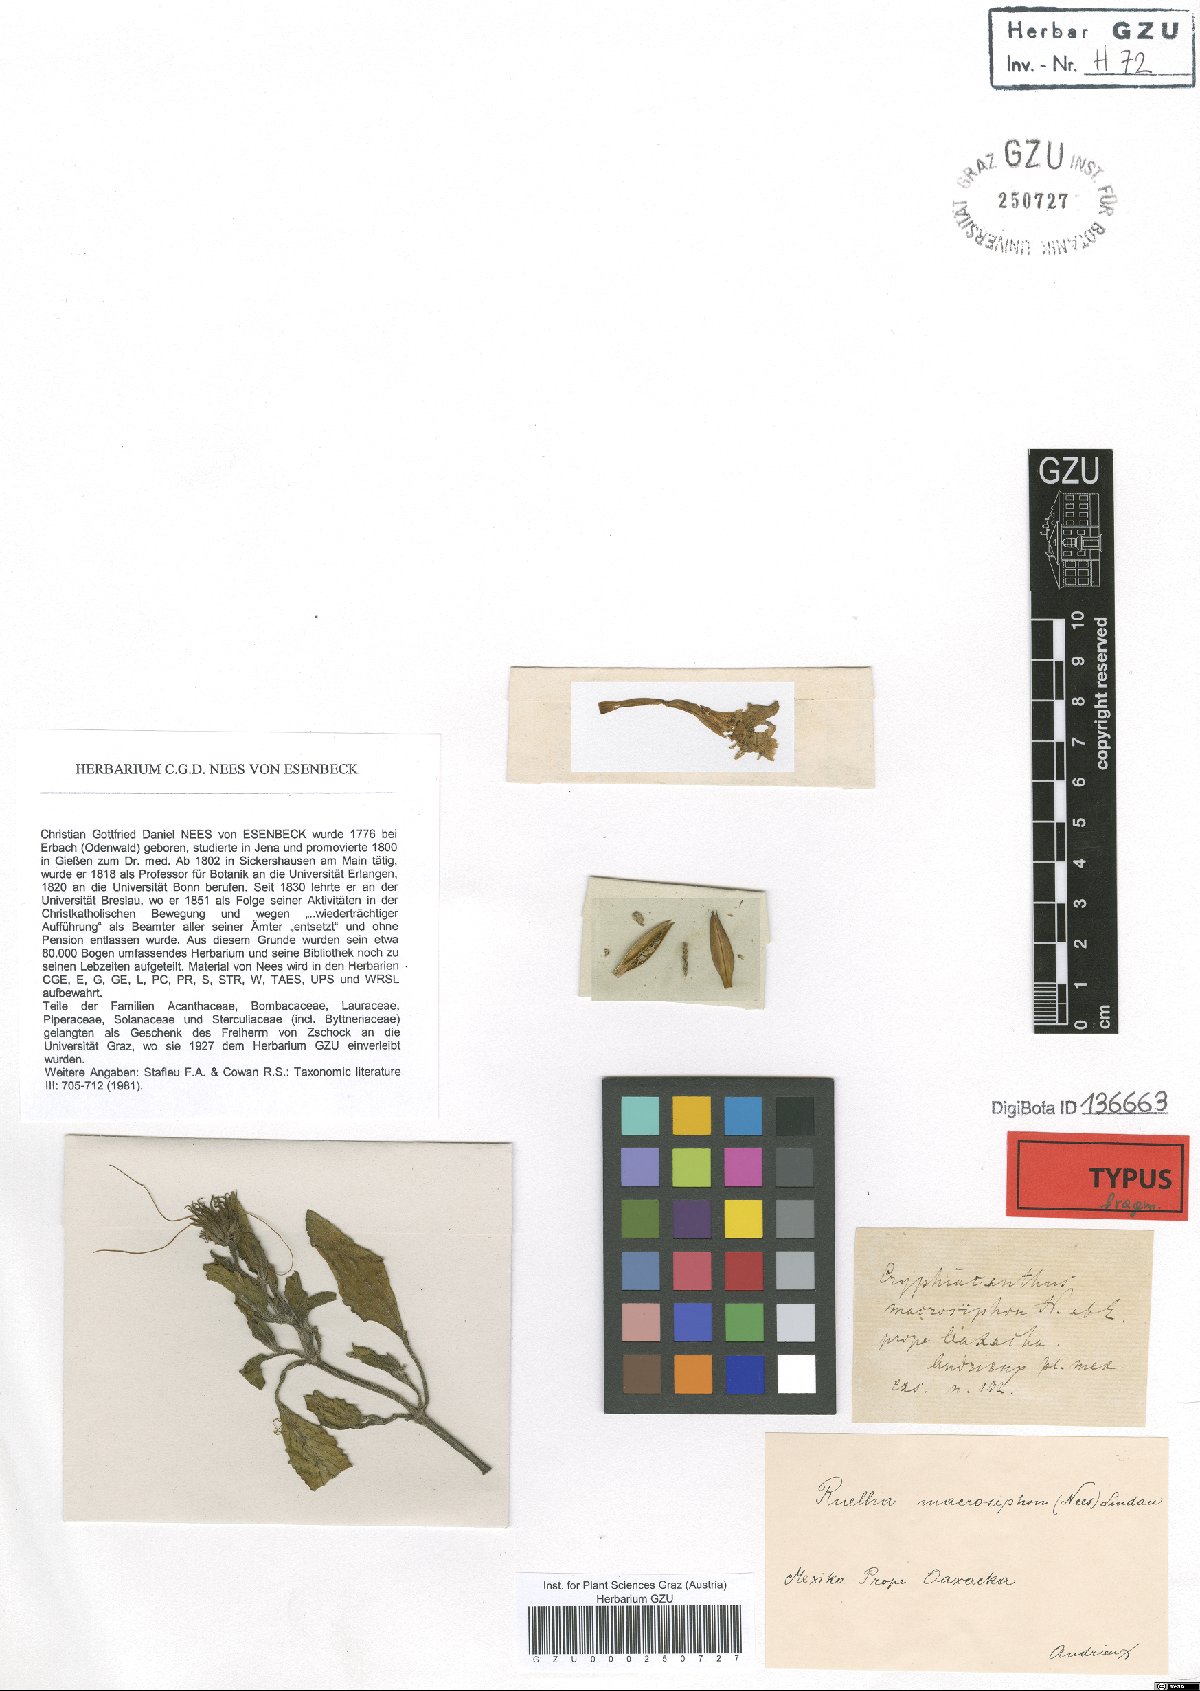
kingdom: Plantae
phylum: Tracheophyta
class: Magnoliopsida
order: Lamiales
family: Acanthaceae
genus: Ruellia
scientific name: Ruellia lactea
